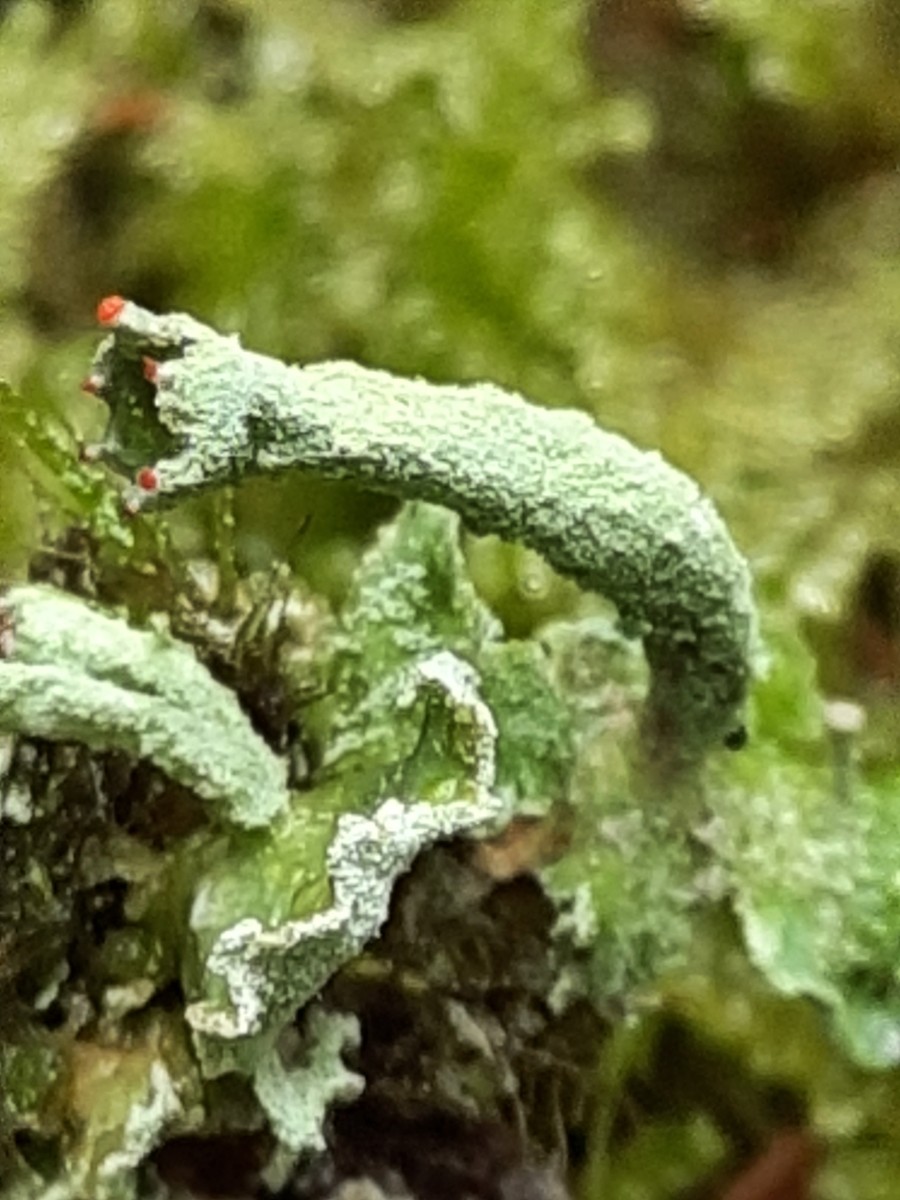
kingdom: Fungi
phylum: Ascomycota
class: Lecanoromycetes
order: Lecanorales
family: Cladoniaceae
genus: Cladonia
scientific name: Cladonia digitata
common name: finger-bægerlav
